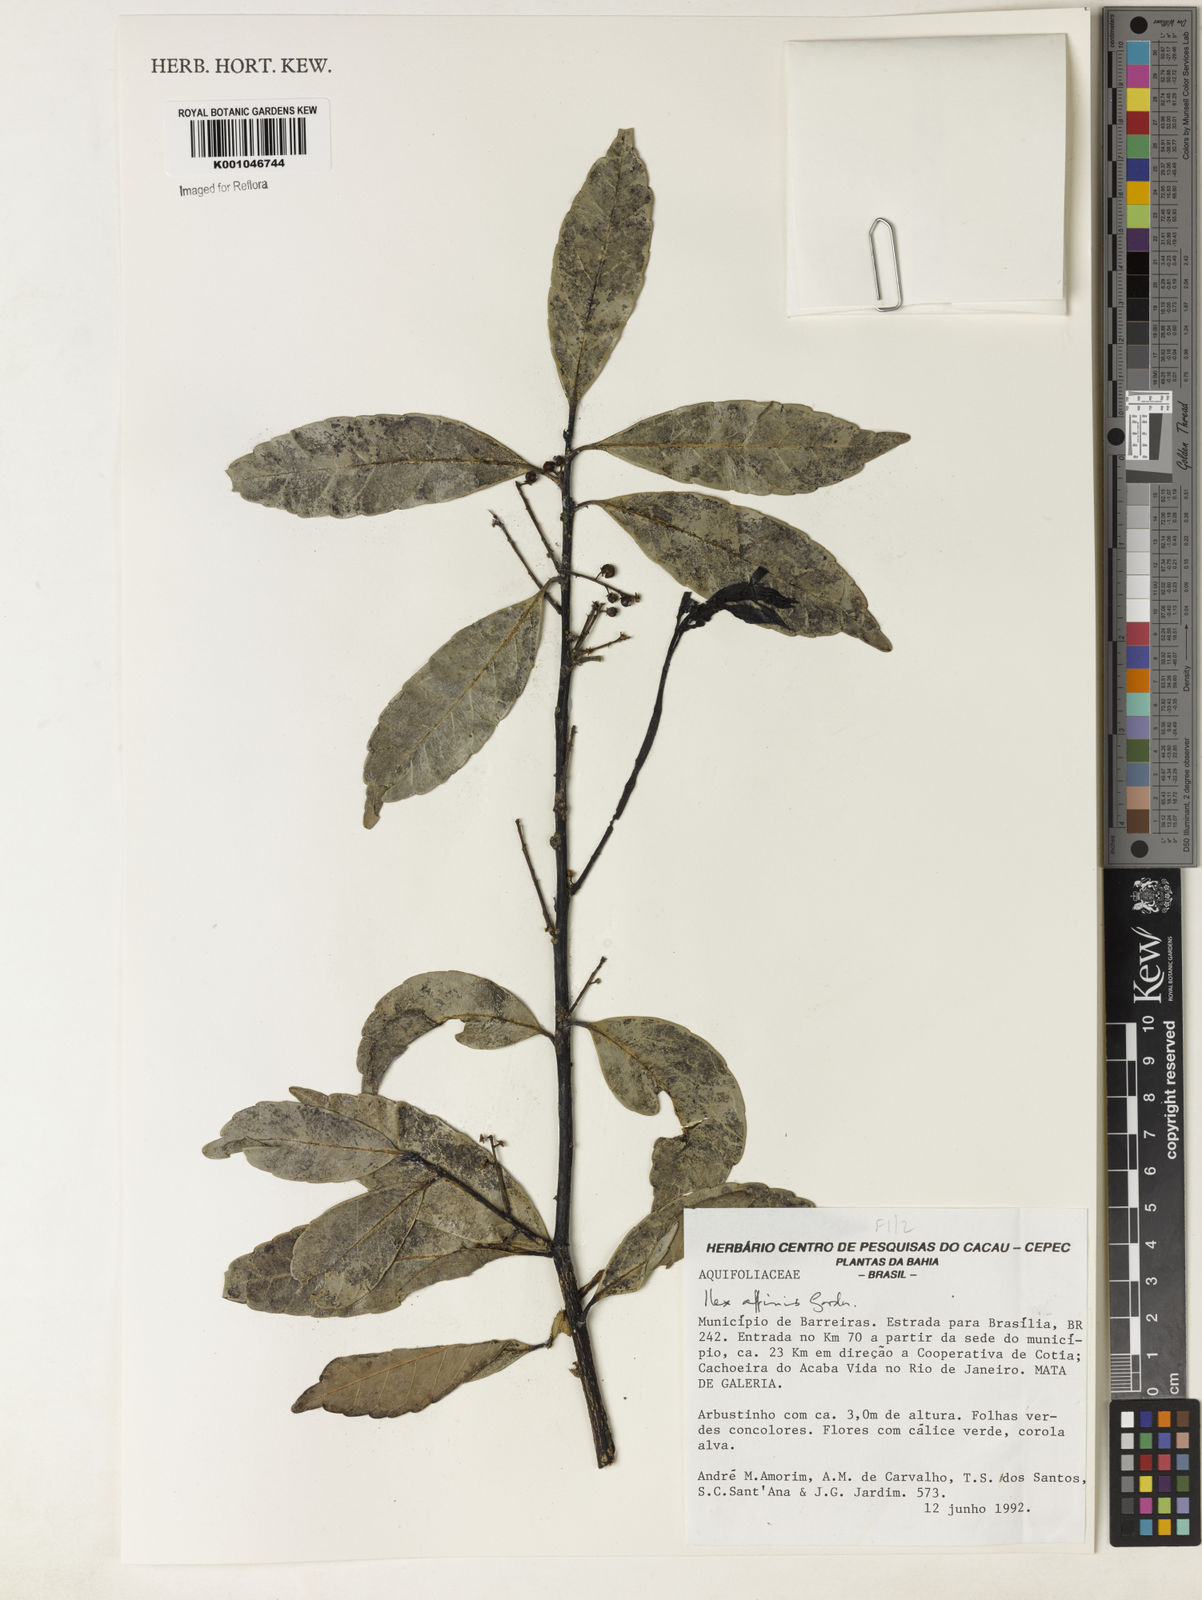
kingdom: Plantae
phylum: Tracheophyta
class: Magnoliopsida
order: Aquifoliales
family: Aquifoliaceae
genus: Ilex
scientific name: Ilex affinis
